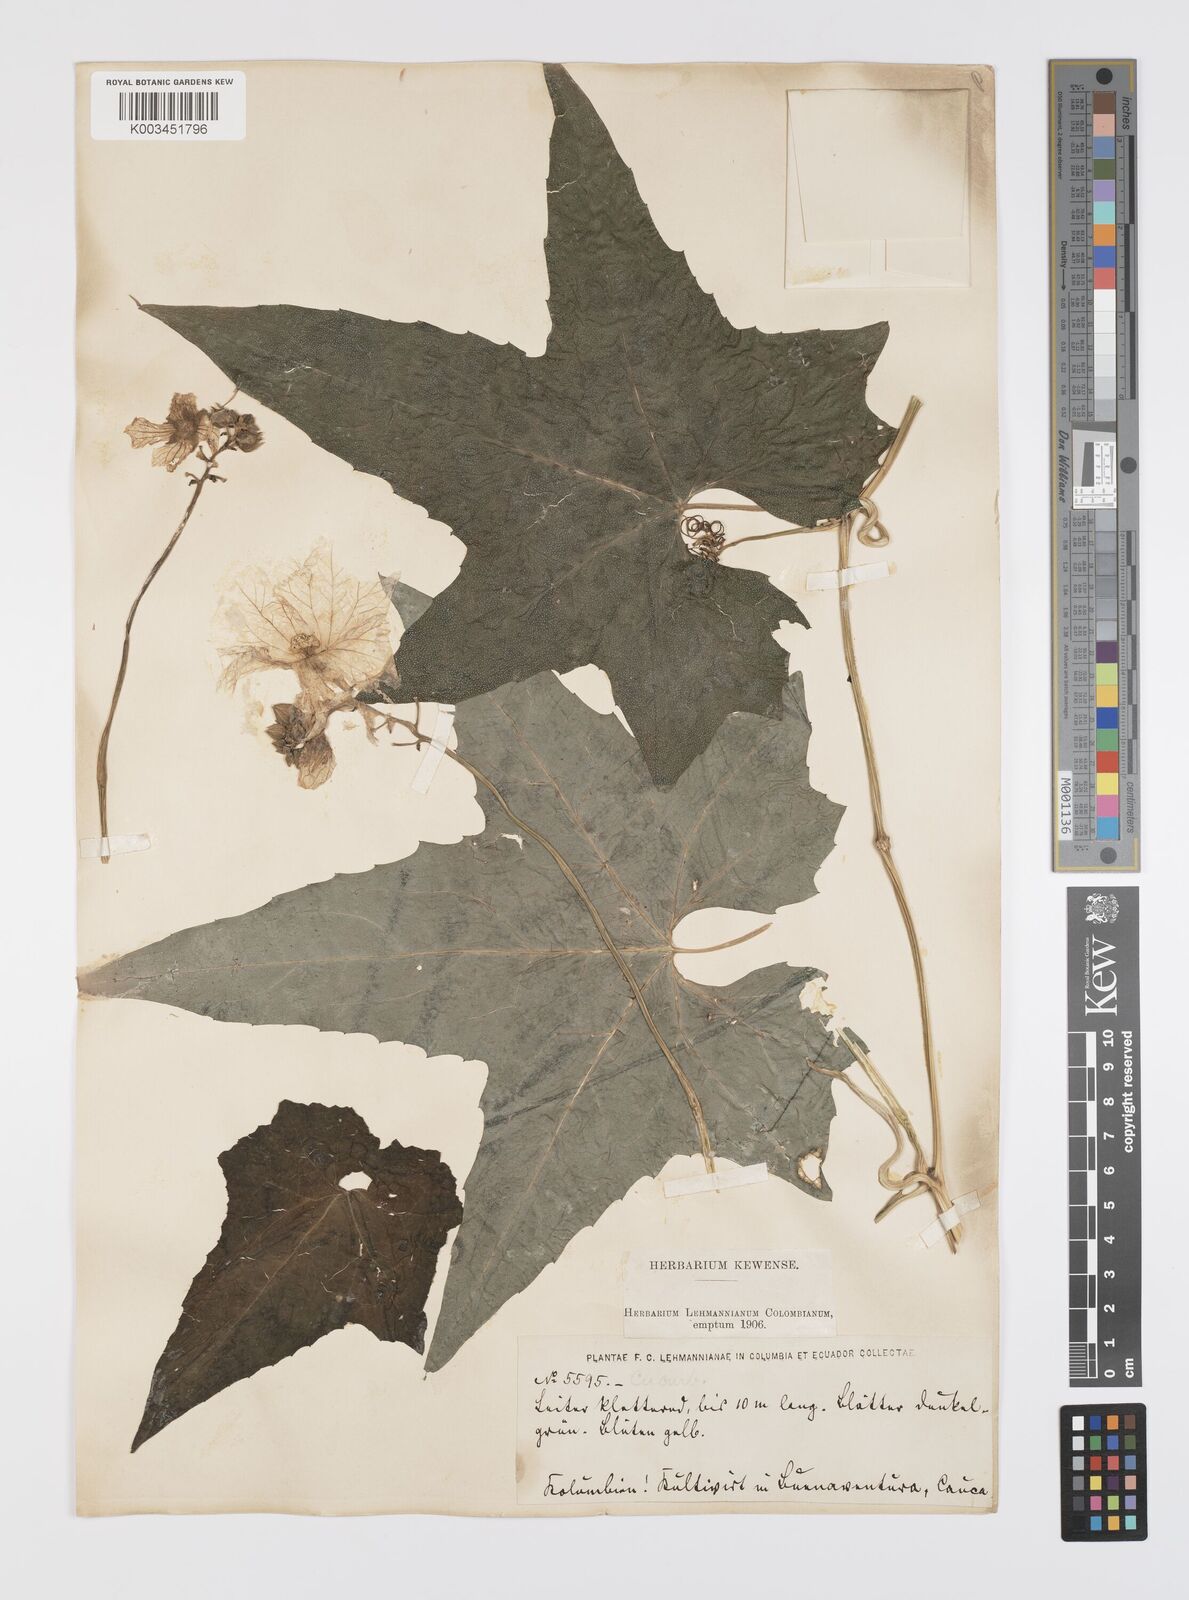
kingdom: Plantae
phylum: Tracheophyta
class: Magnoliopsida
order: Cucurbitales
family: Cucurbitaceae
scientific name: Cucurbitaceae
